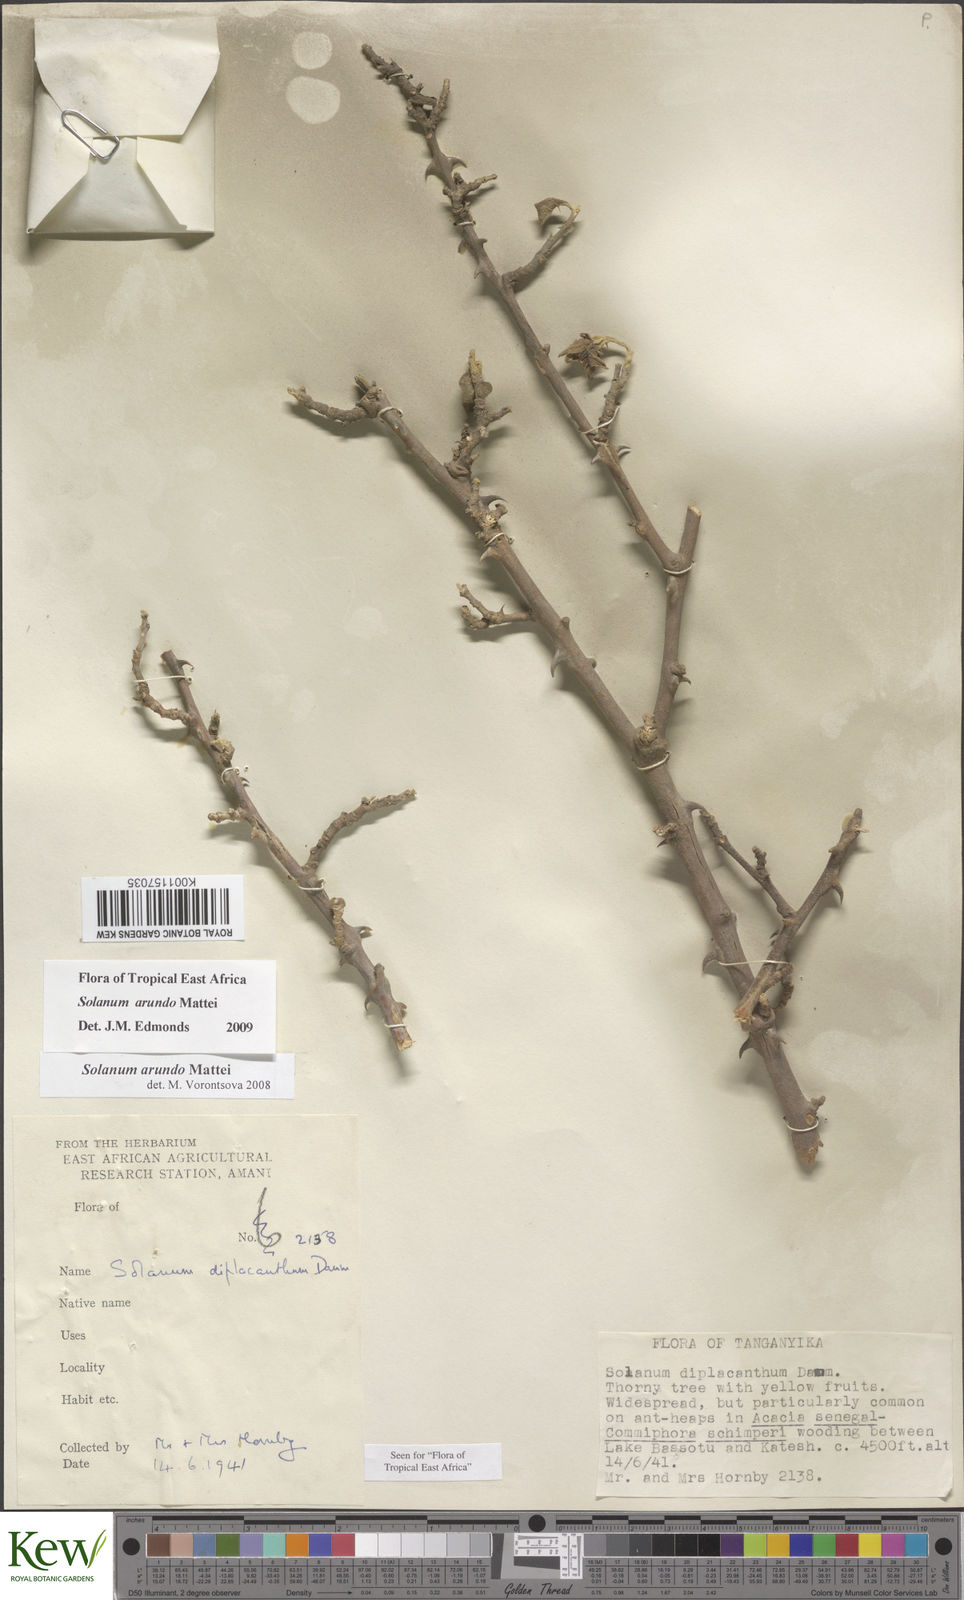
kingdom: Plantae
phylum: Tracheophyta
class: Magnoliopsida
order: Solanales
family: Solanaceae
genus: Solanum
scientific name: Solanum arundo
